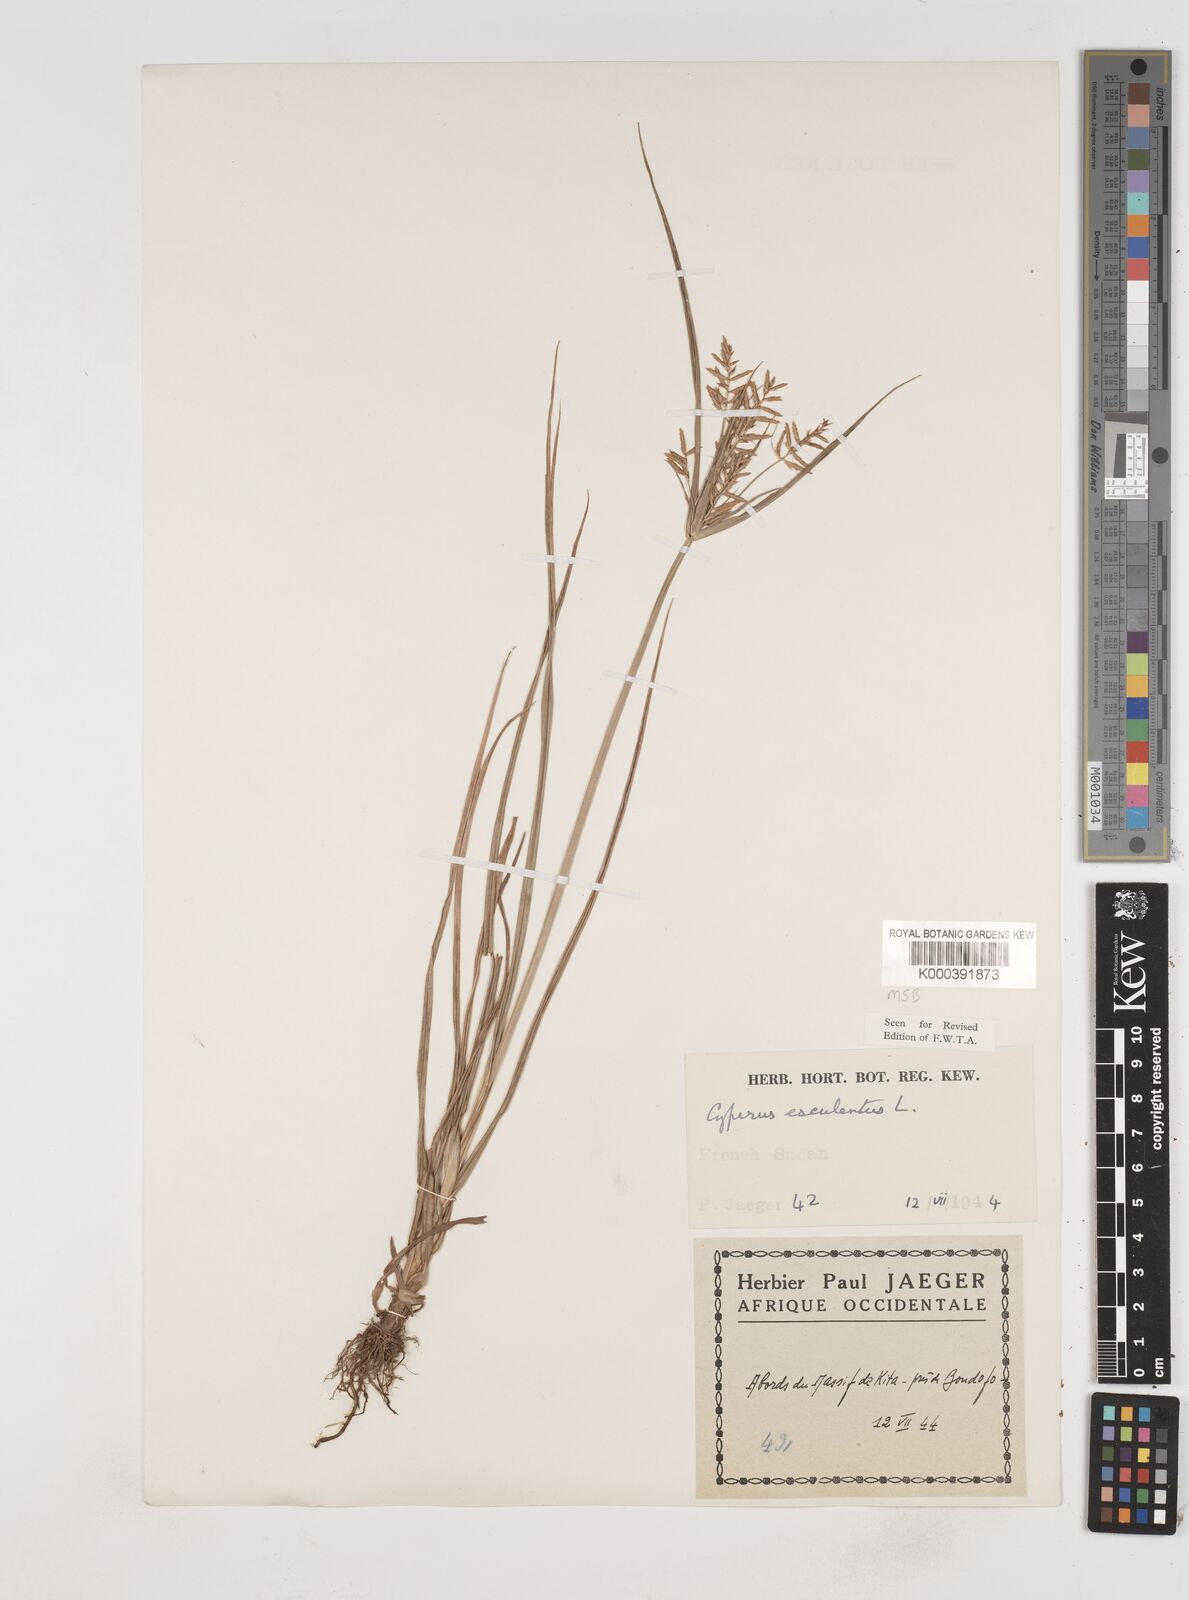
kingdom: Plantae
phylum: Tracheophyta
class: Liliopsida
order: Poales
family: Cyperaceae
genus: Cyperus
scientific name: Cyperus esculentus
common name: Yellow nutsedge
